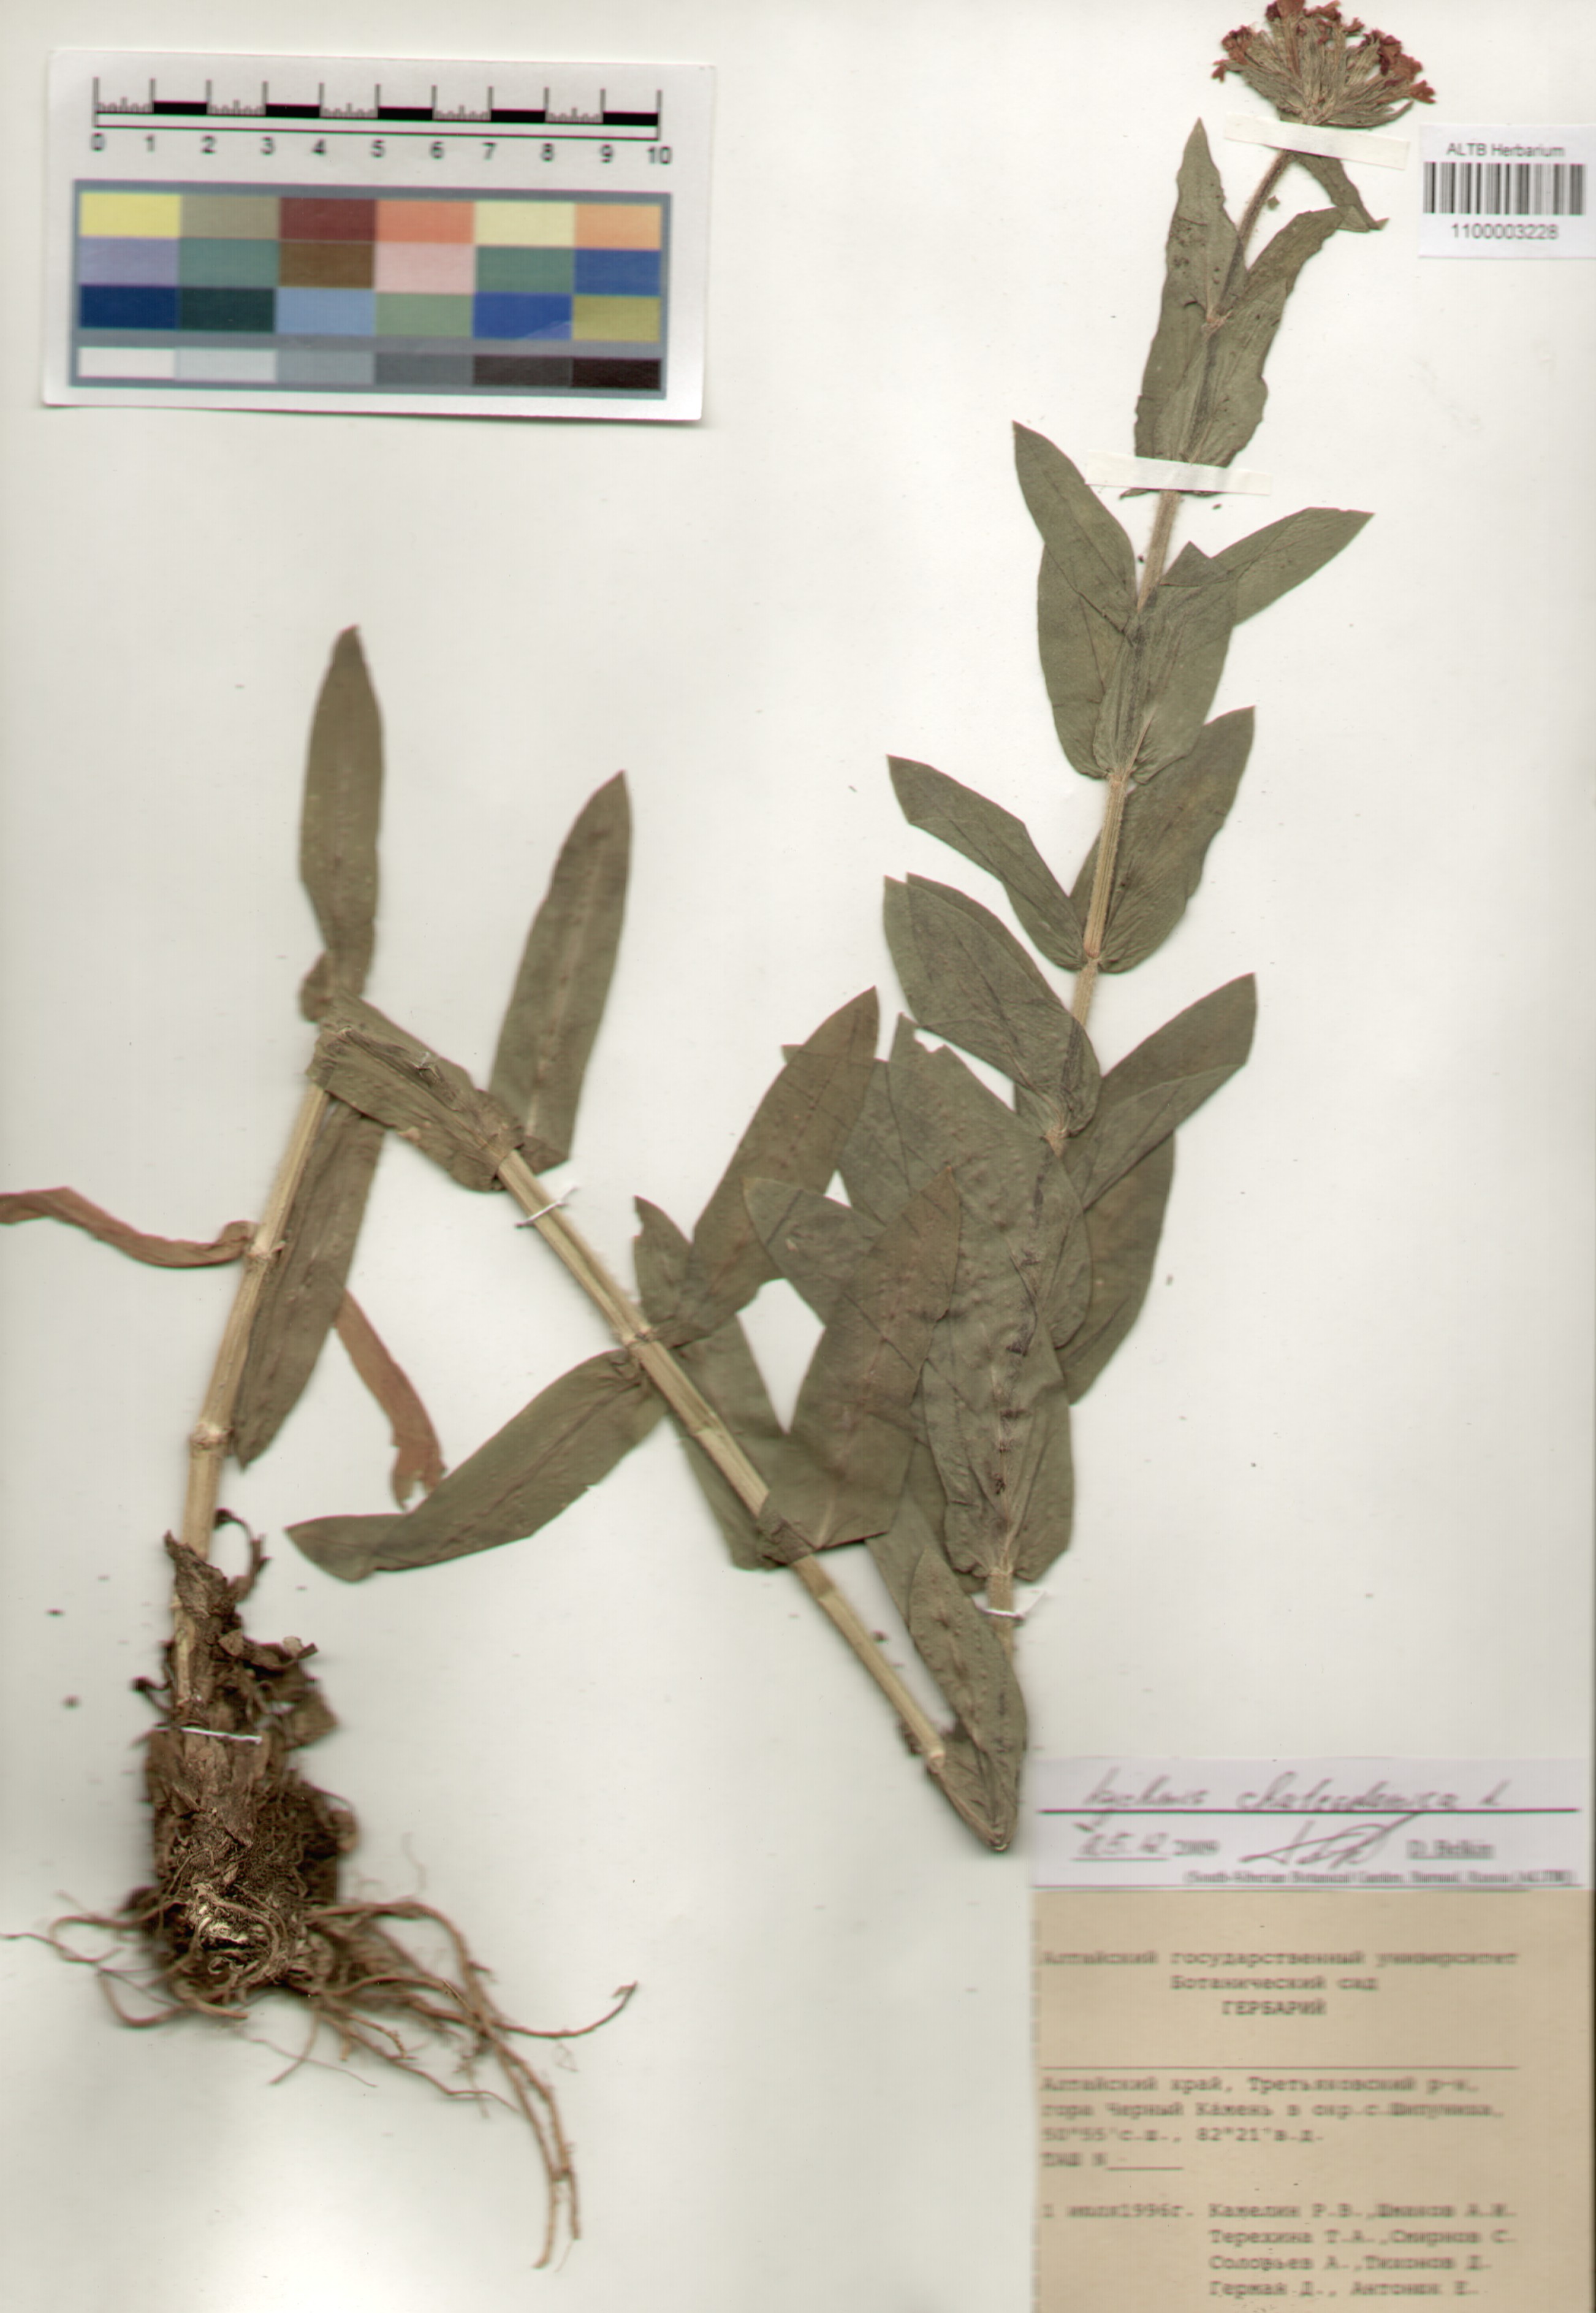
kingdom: Plantae
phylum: Tracheophyta
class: Magnoliopsida
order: Caryophyllales
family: Caryophyllaceae
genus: Silene
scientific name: Silene chalcedonica
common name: Maltese-cross
